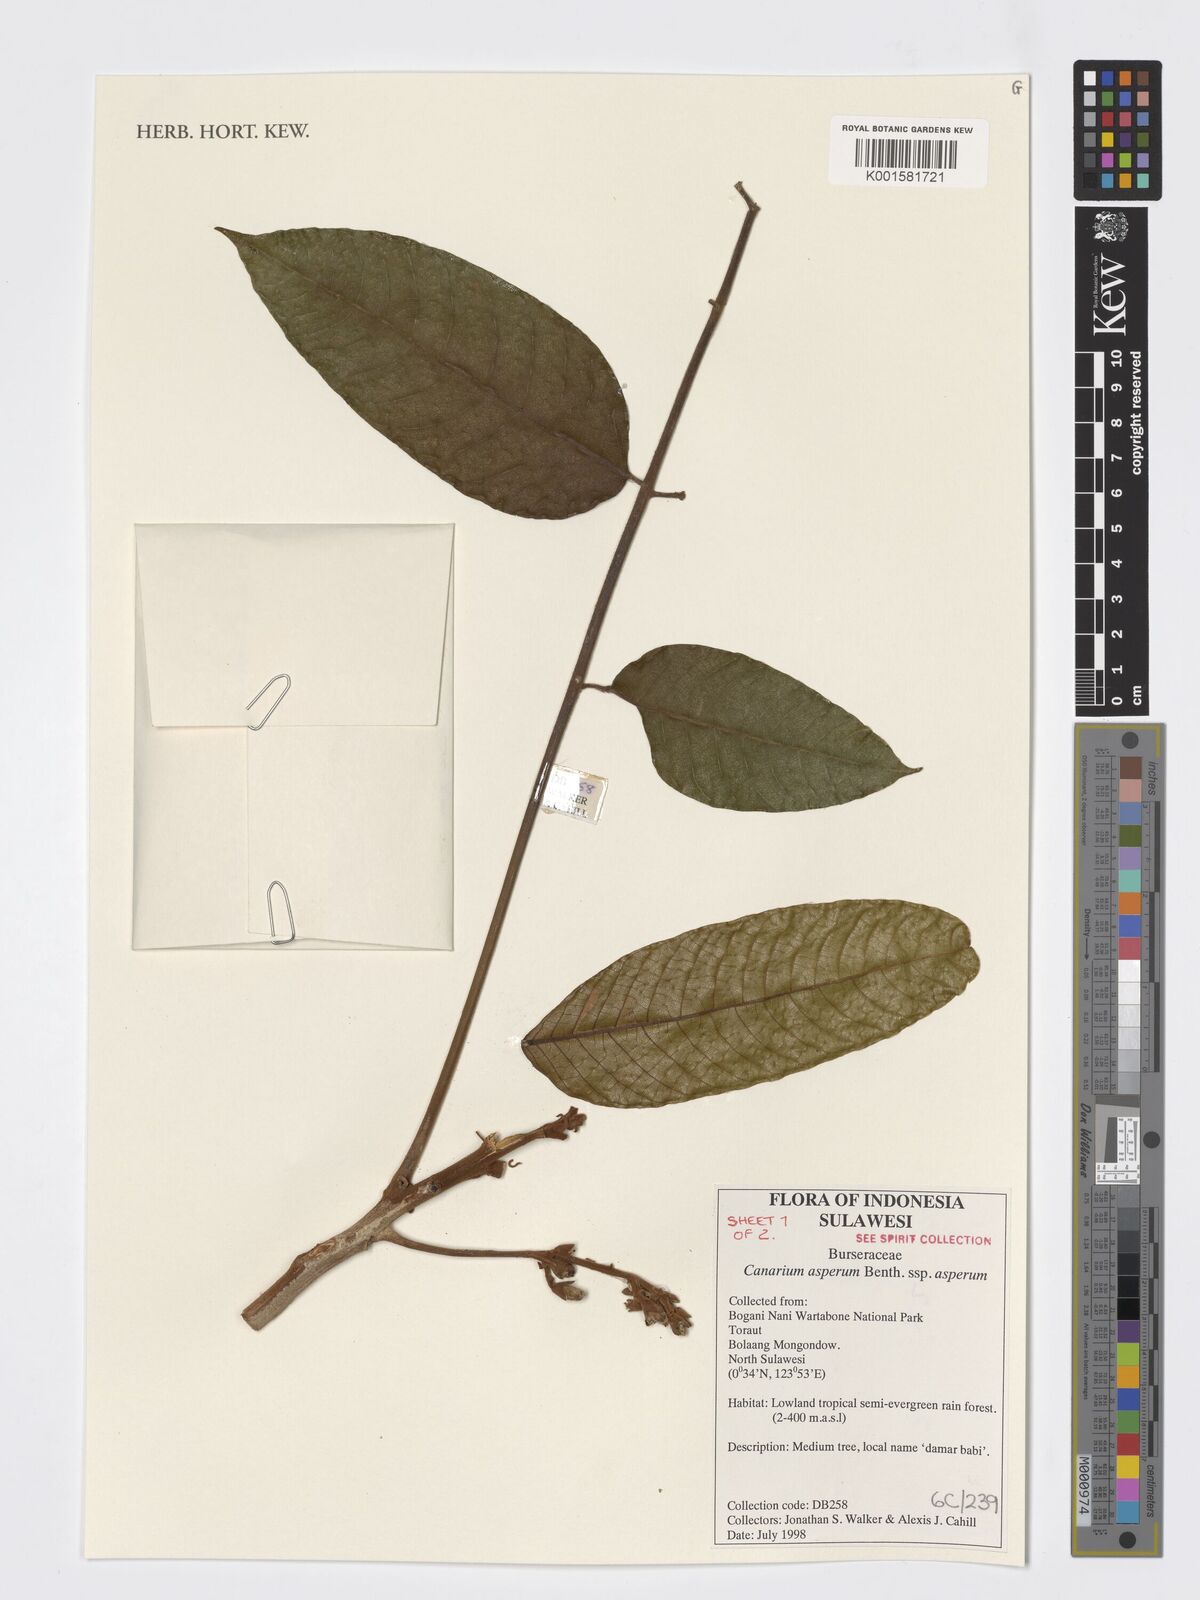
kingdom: Plantae
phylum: Tracheophyta
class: Magnoliopsida
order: Sapindales
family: Burseraceae
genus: Canarium
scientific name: Canarium asperum
